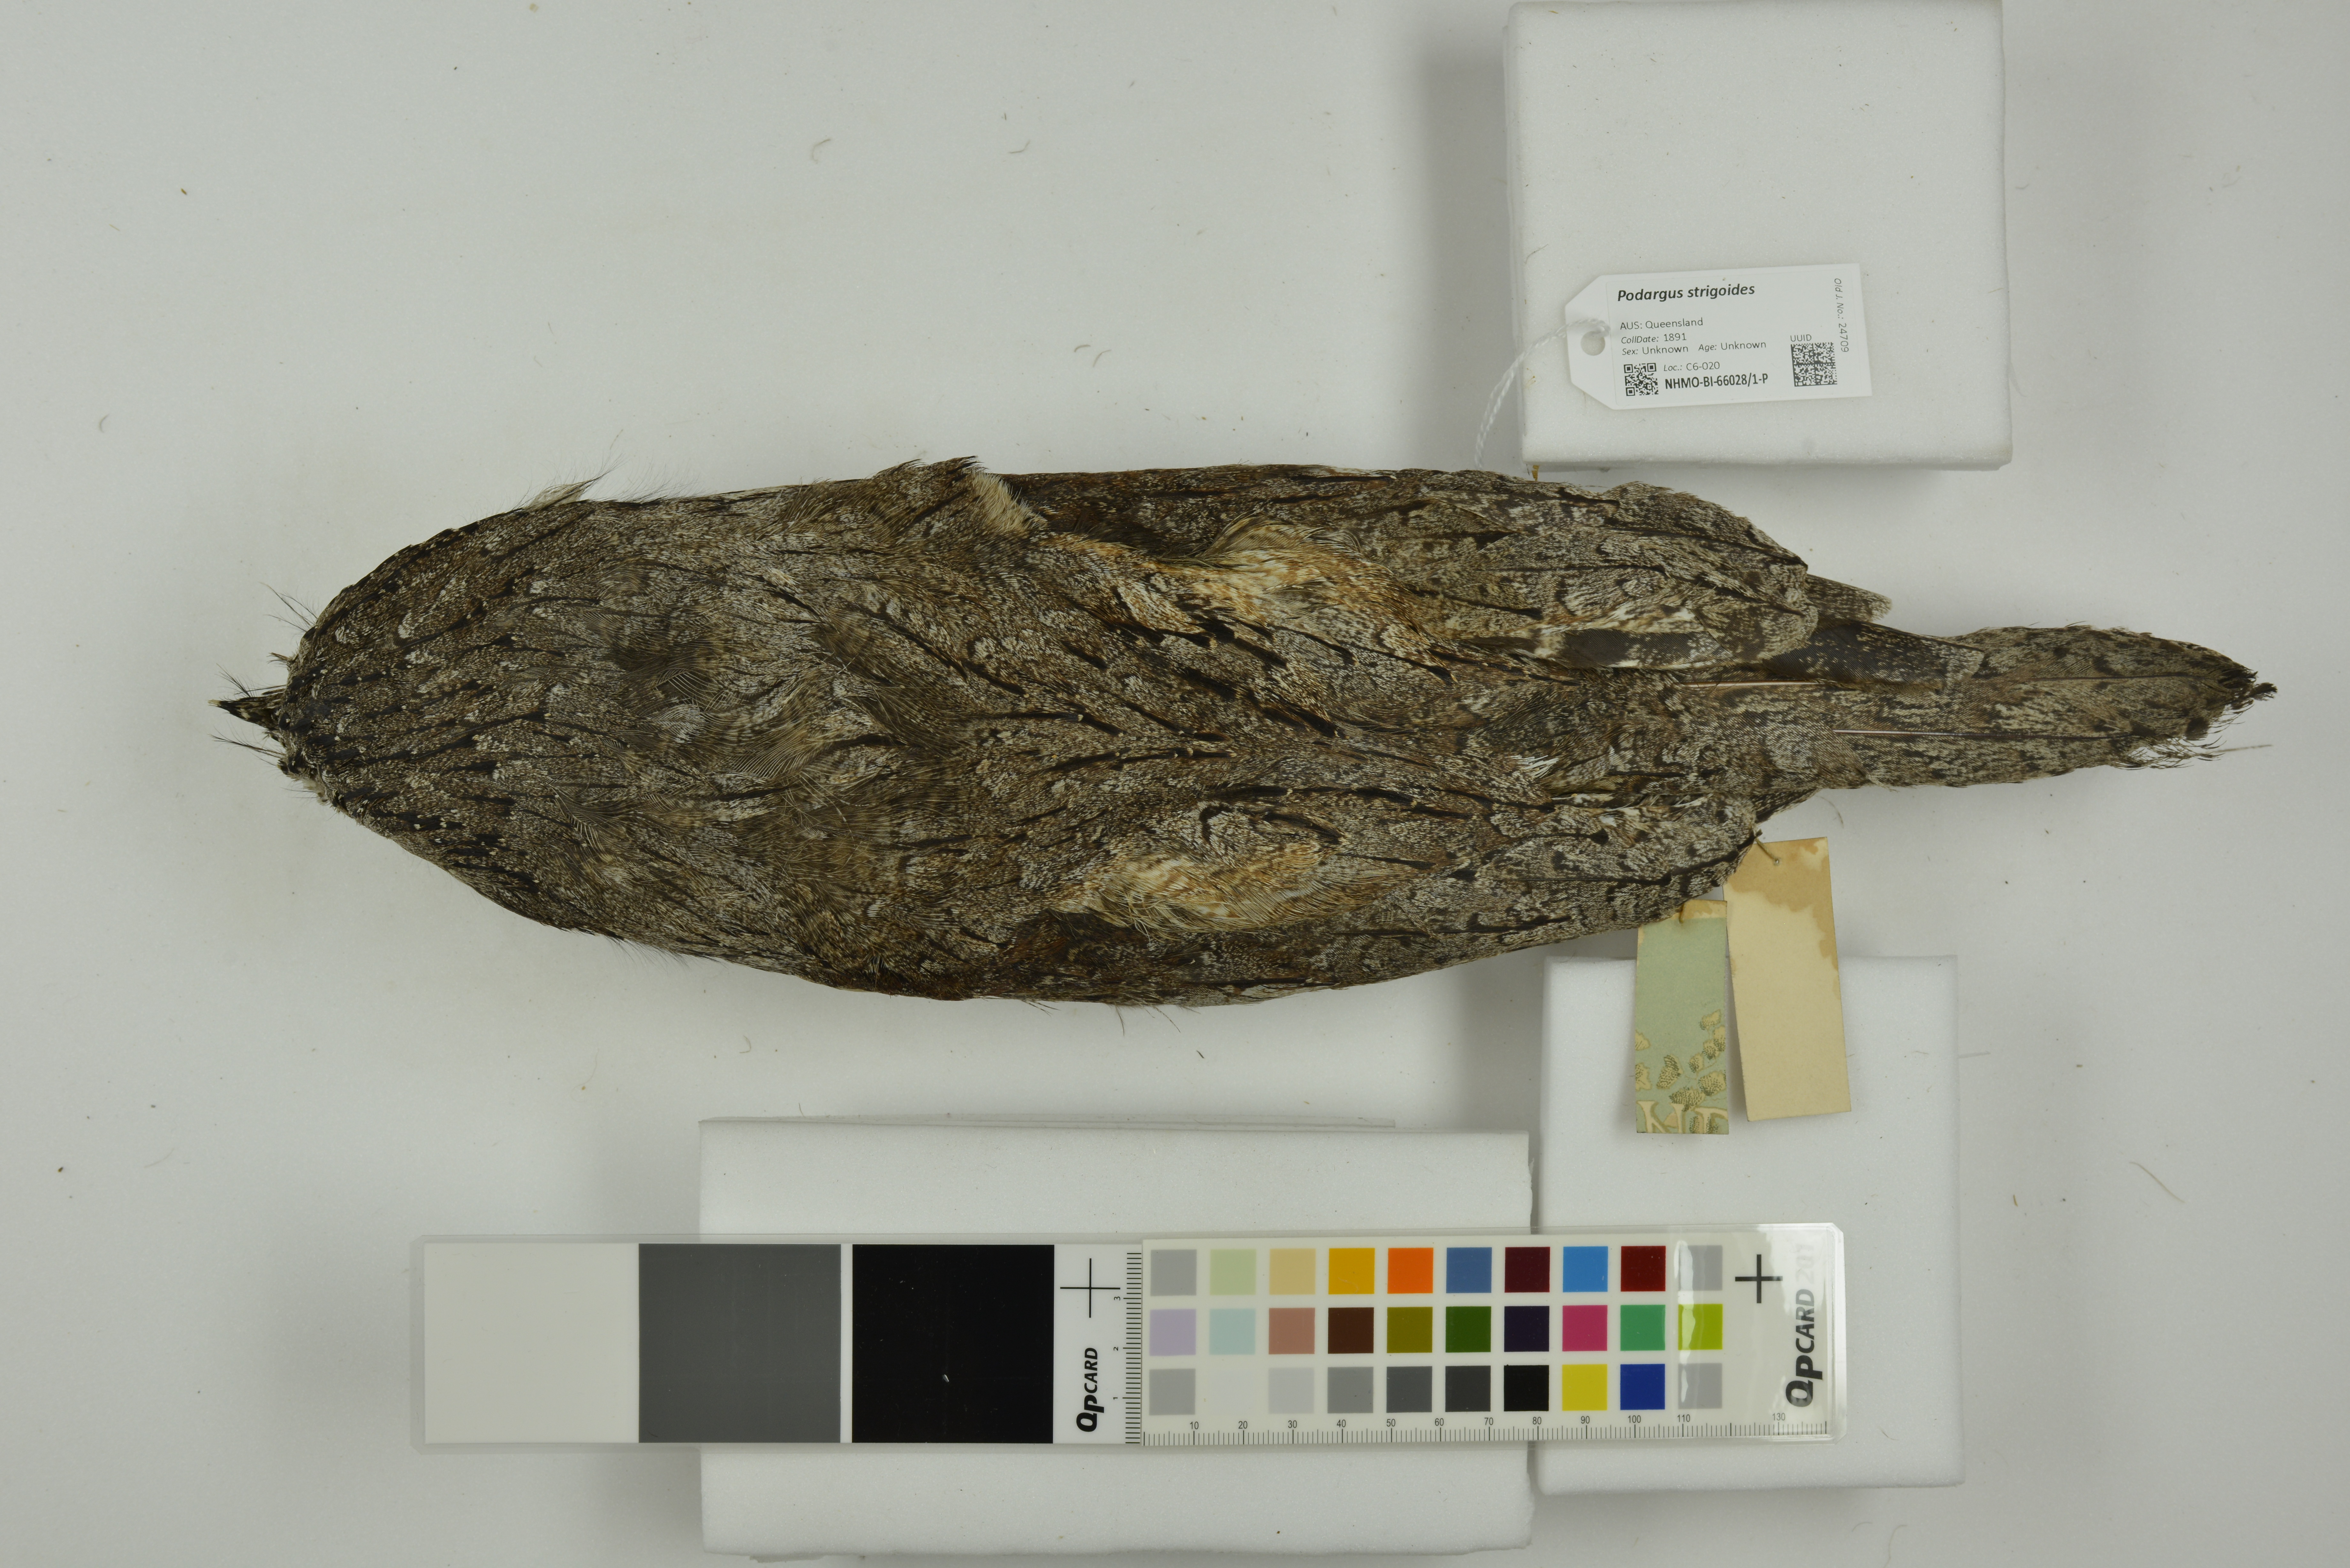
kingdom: Animalia
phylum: Chordata
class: Aves
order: Caprimulgiformes
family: Podargidae
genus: Podargus
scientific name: Podargus strigoides
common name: Tawny frogmouth
